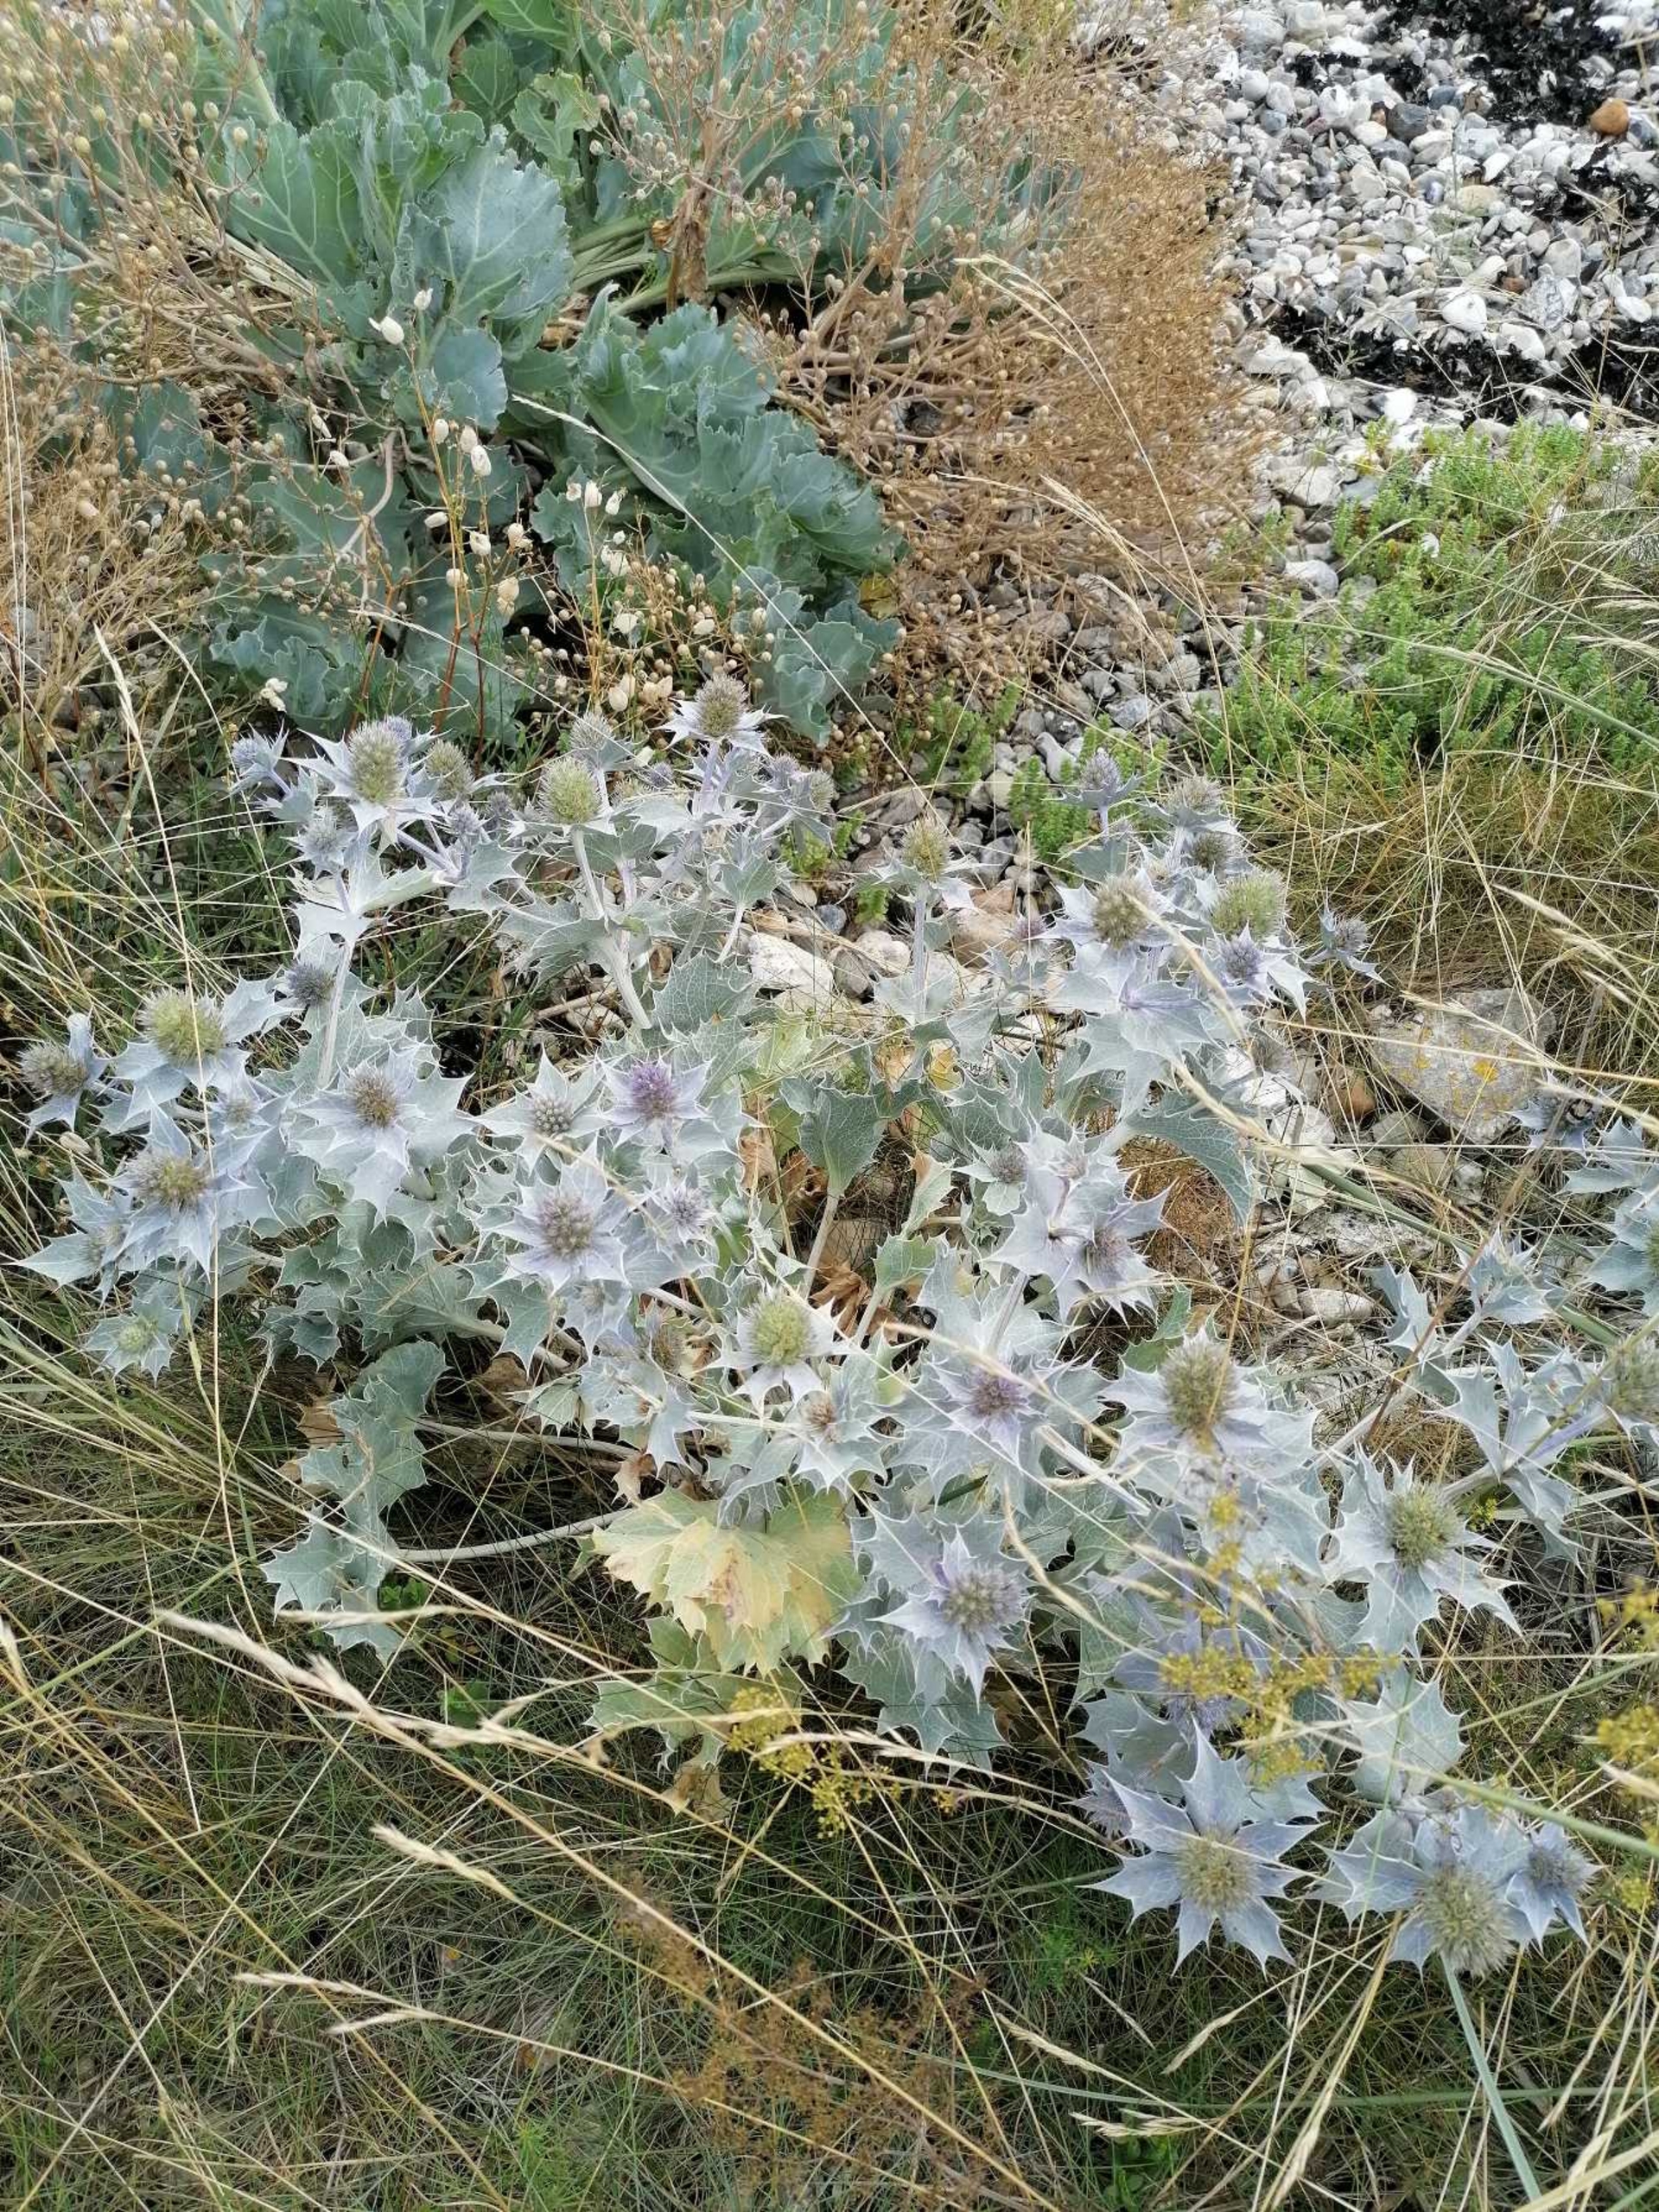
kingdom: Plantae
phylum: Tracheophyta
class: Magnoliopsida
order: Apiales
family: Apiaceae
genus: Eryngium
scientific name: Eryngium maritimum
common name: Strand-mandstro
